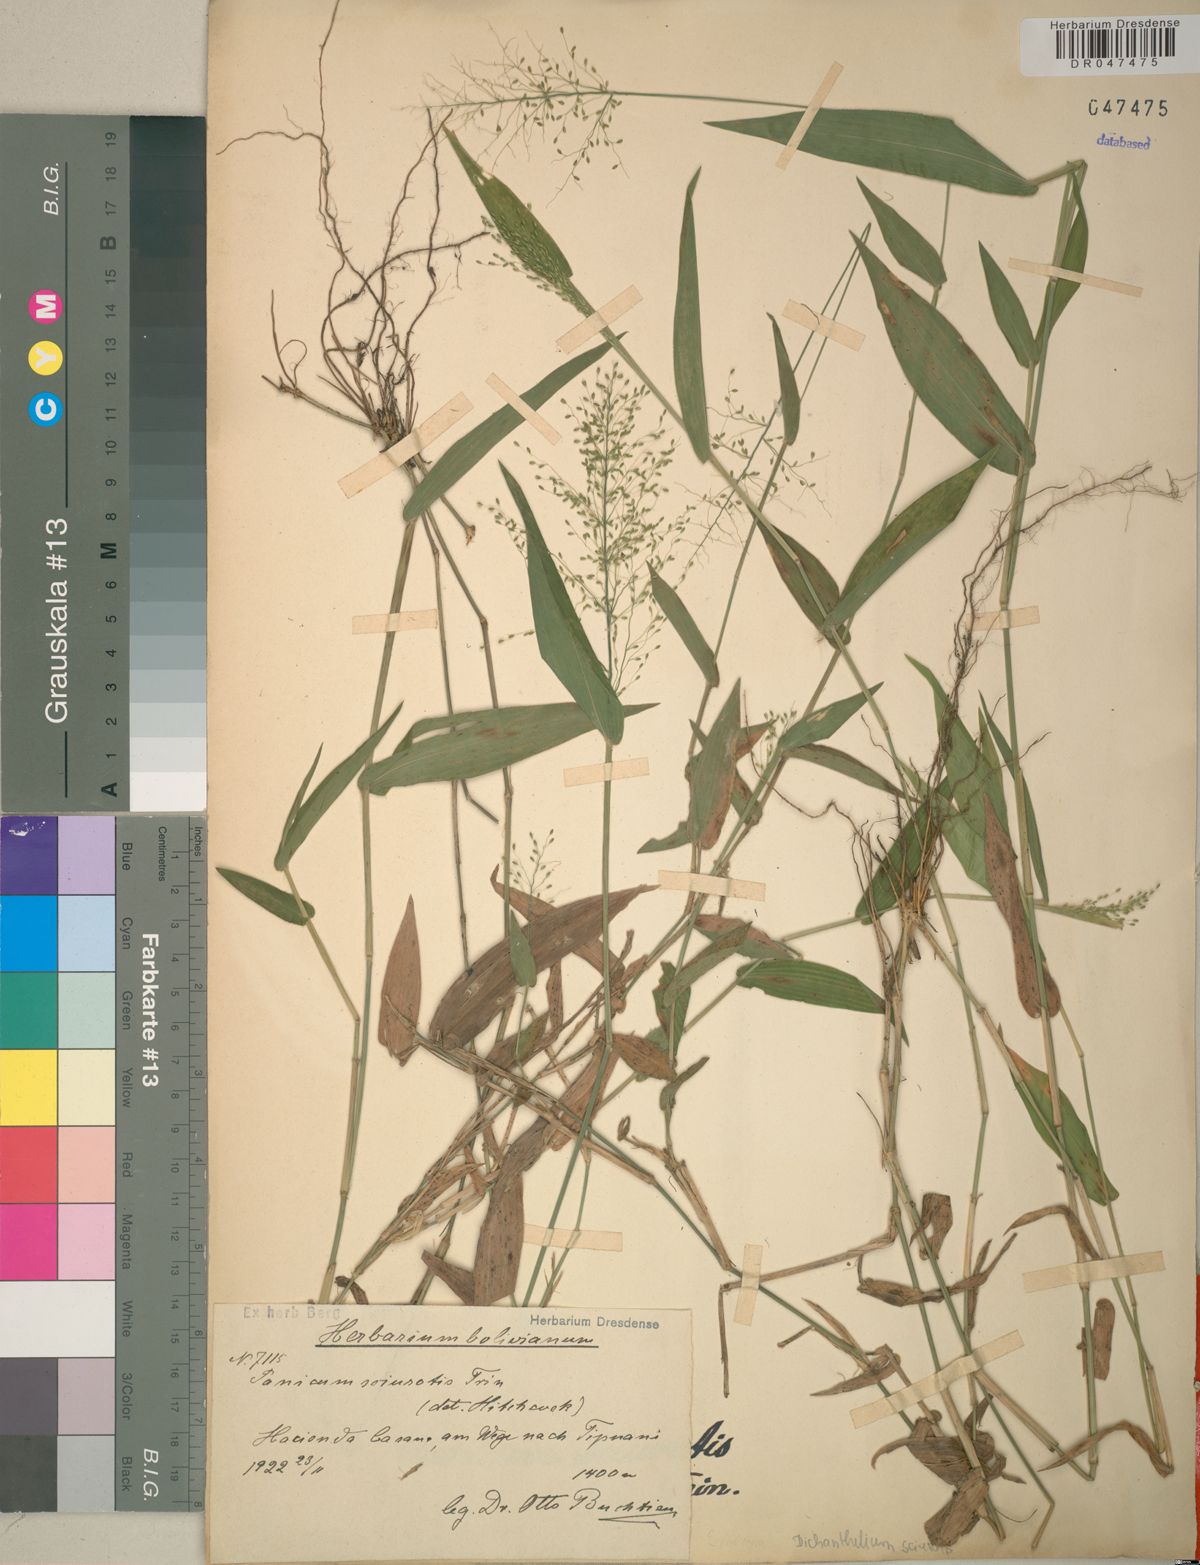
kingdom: Plantae
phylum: Tracheophyta
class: Liliopsida
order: Poales
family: Poaceae
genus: Dichanthelium
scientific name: Dichanthelium sciurotis
